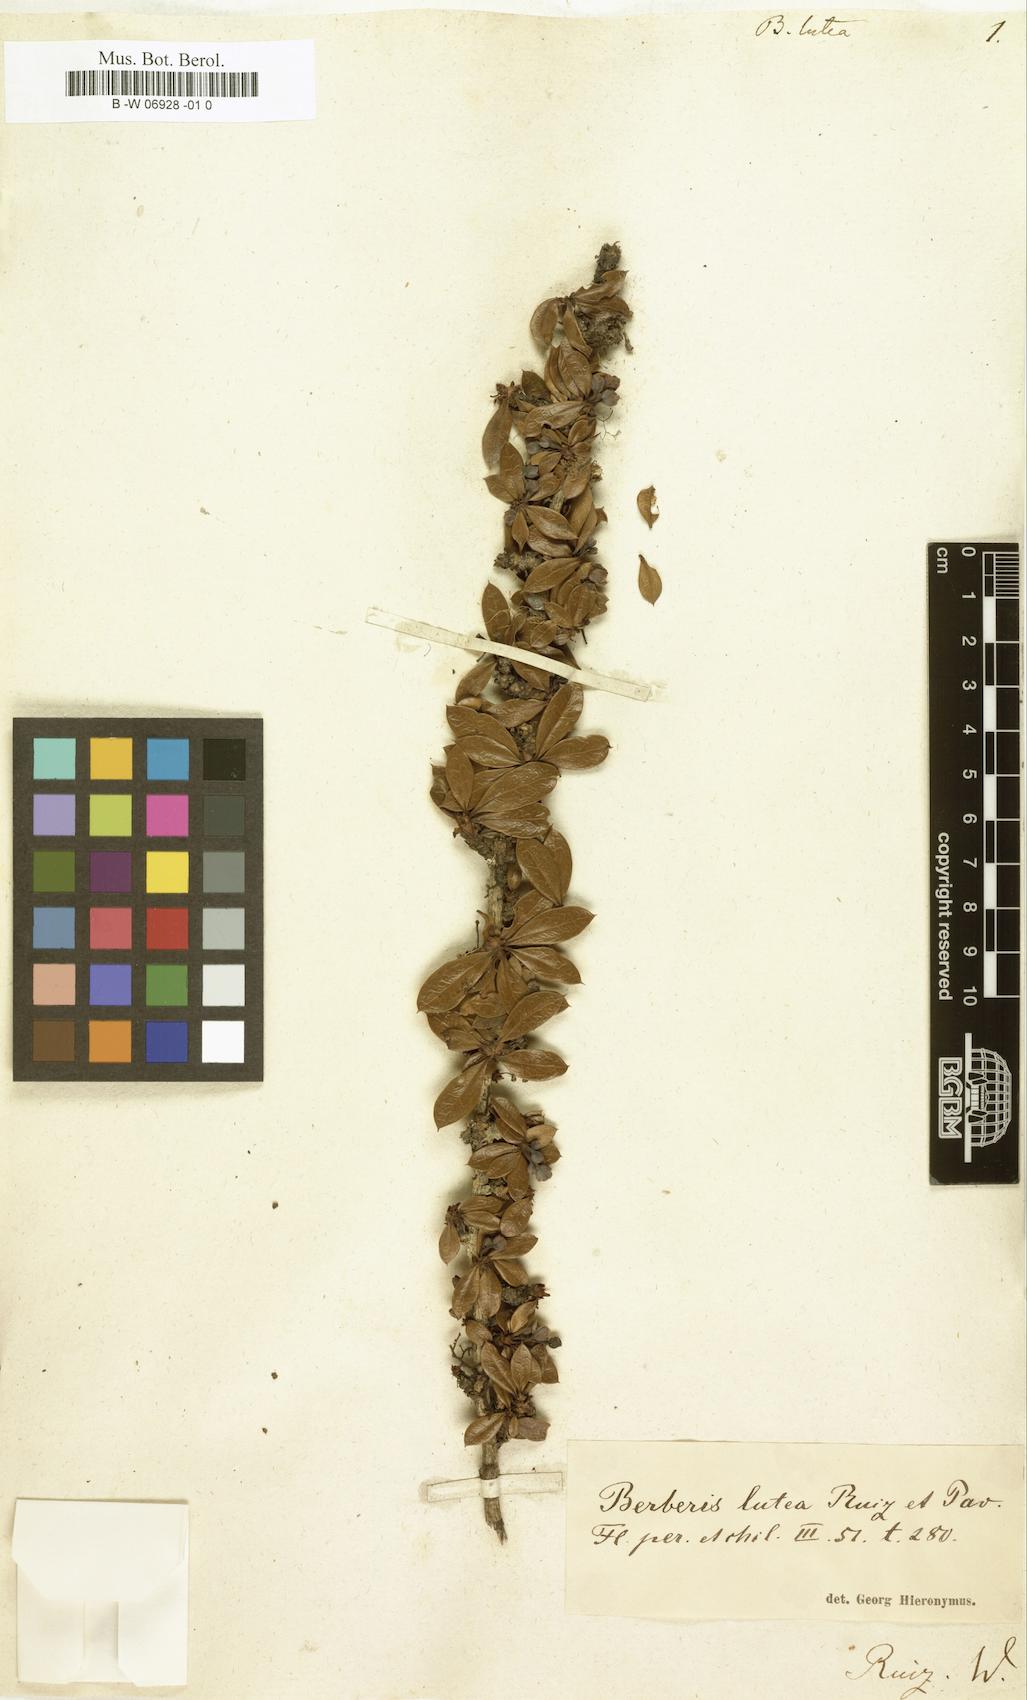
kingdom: Plantae
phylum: Tracheophyta
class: Magnoliopsida
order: Ranunculales
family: Berberidaceae
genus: Berberis
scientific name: Berberis lutea
